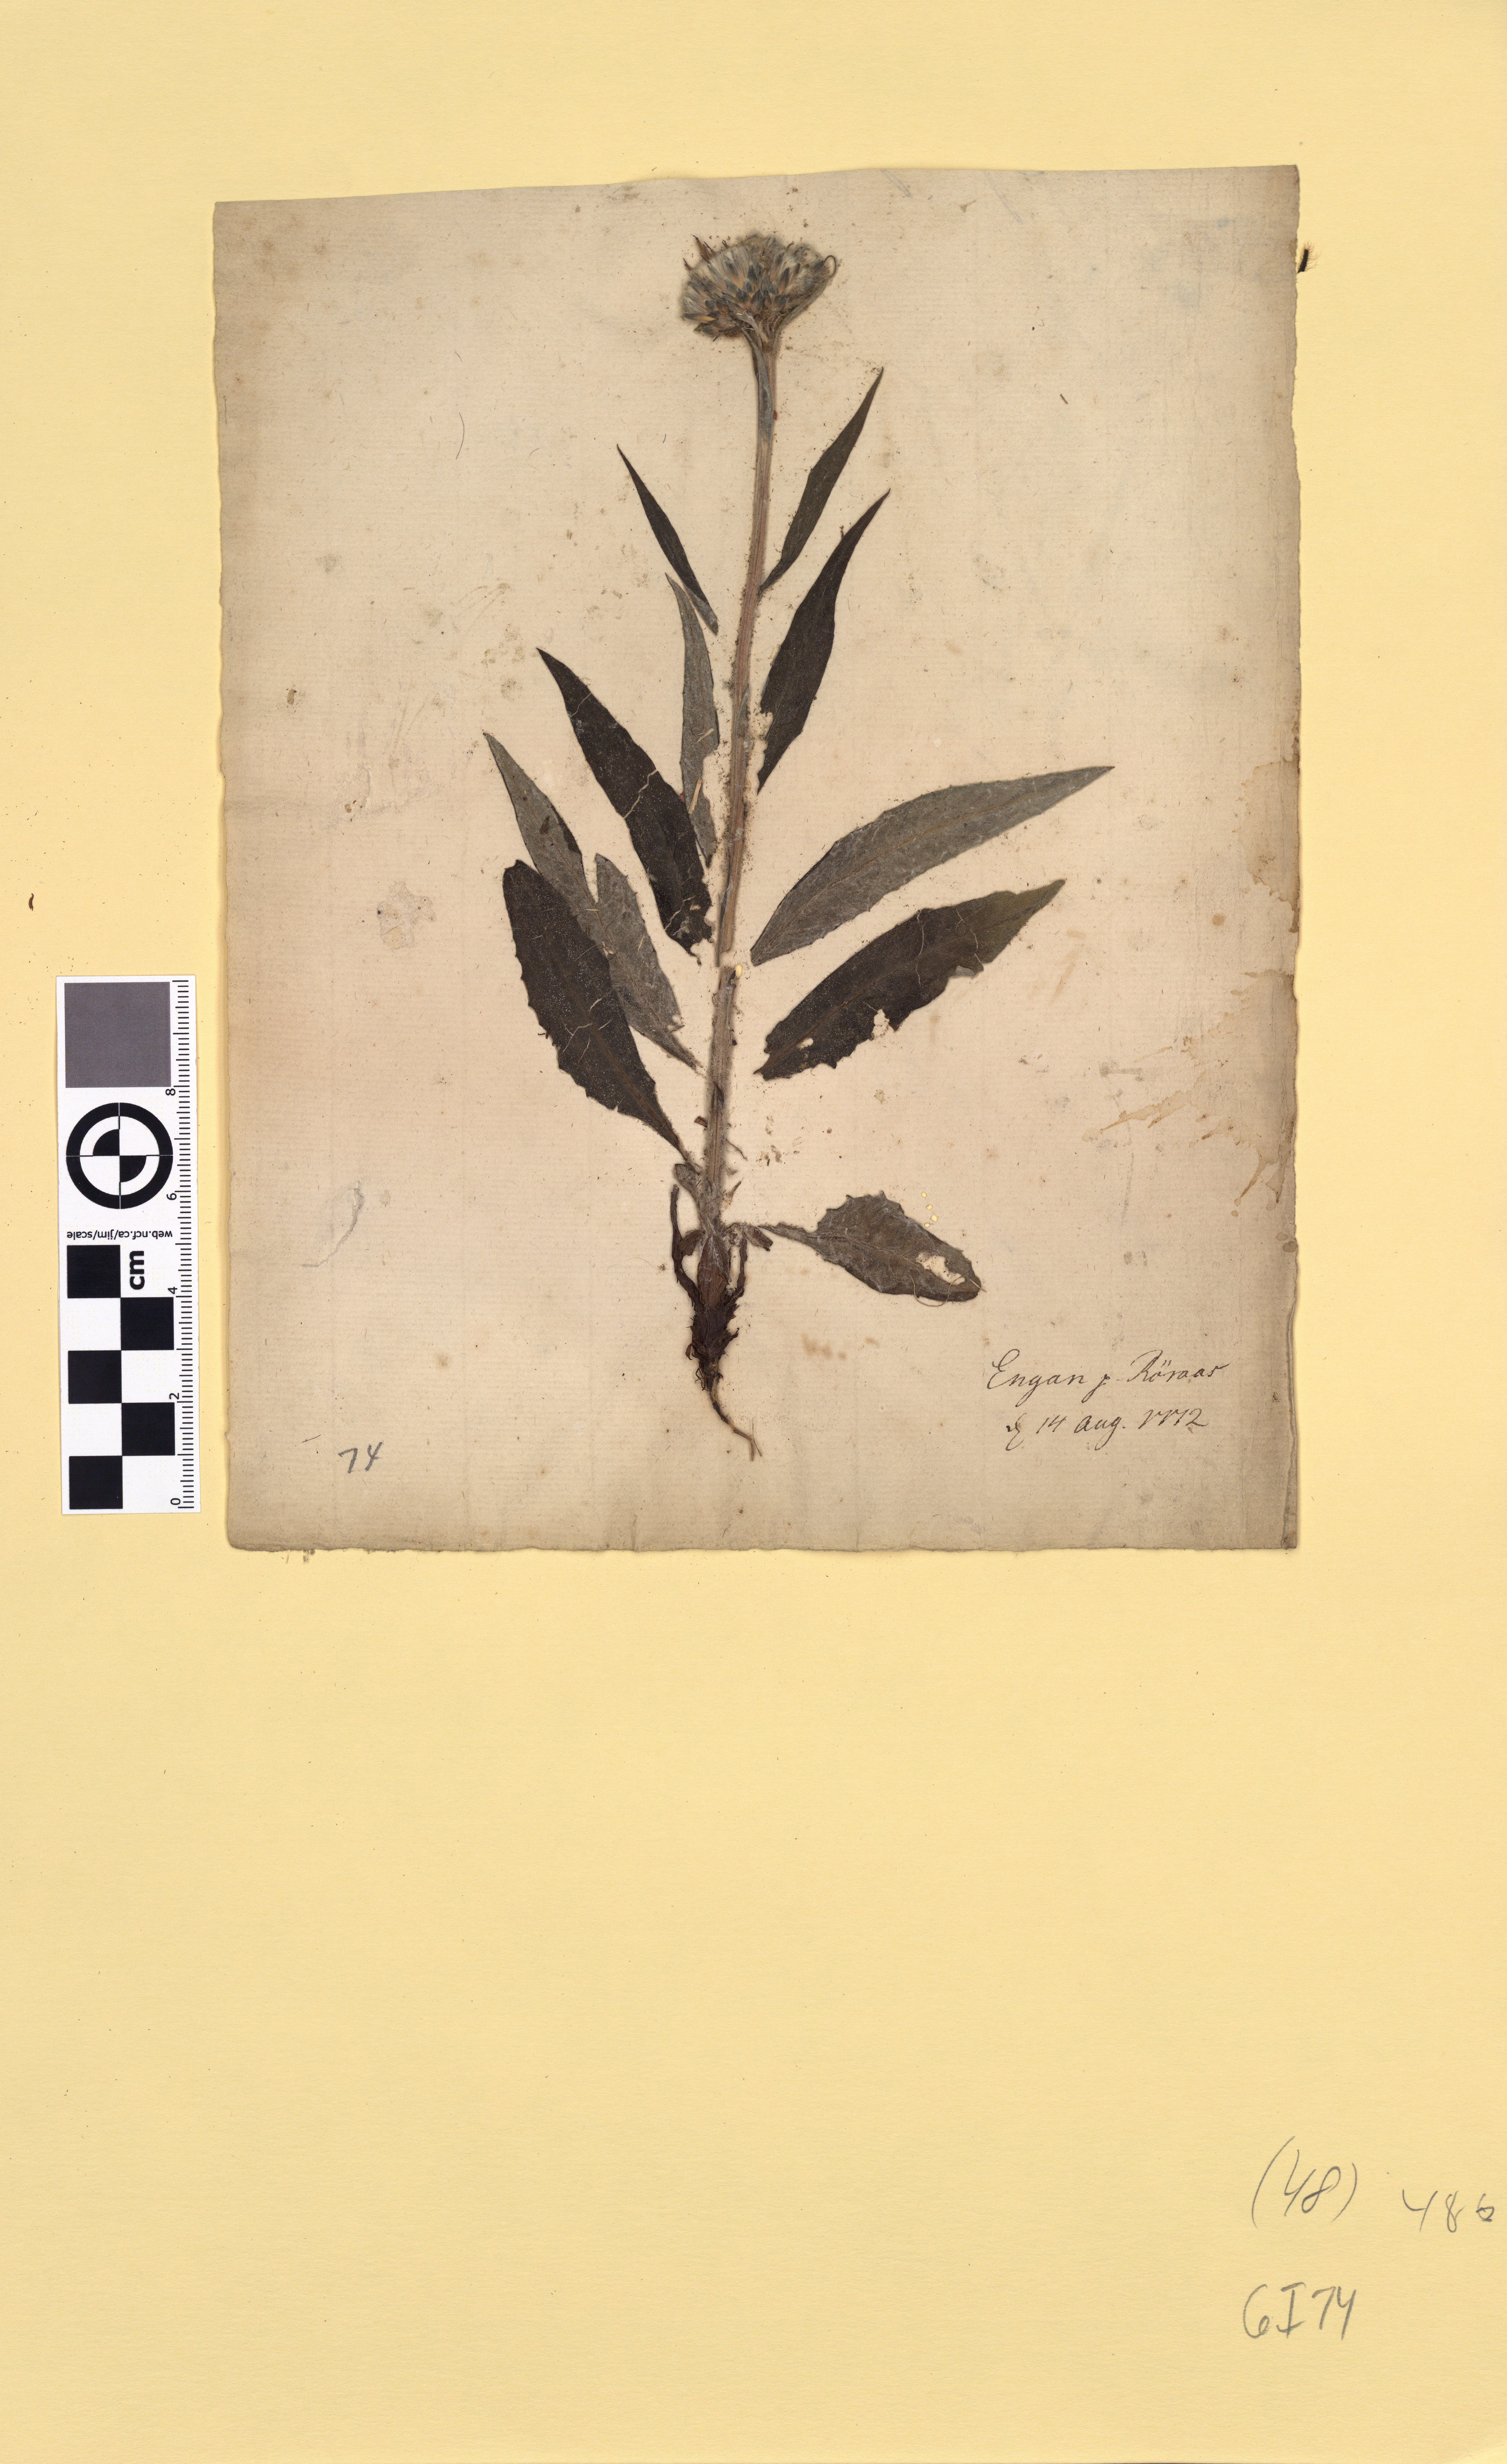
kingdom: Plantae
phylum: Tracheophyta
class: Magnoliopsida
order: Asterales
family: Asteraceae
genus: Saussurea
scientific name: Saussurea alpina
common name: Alpine saw-wort
